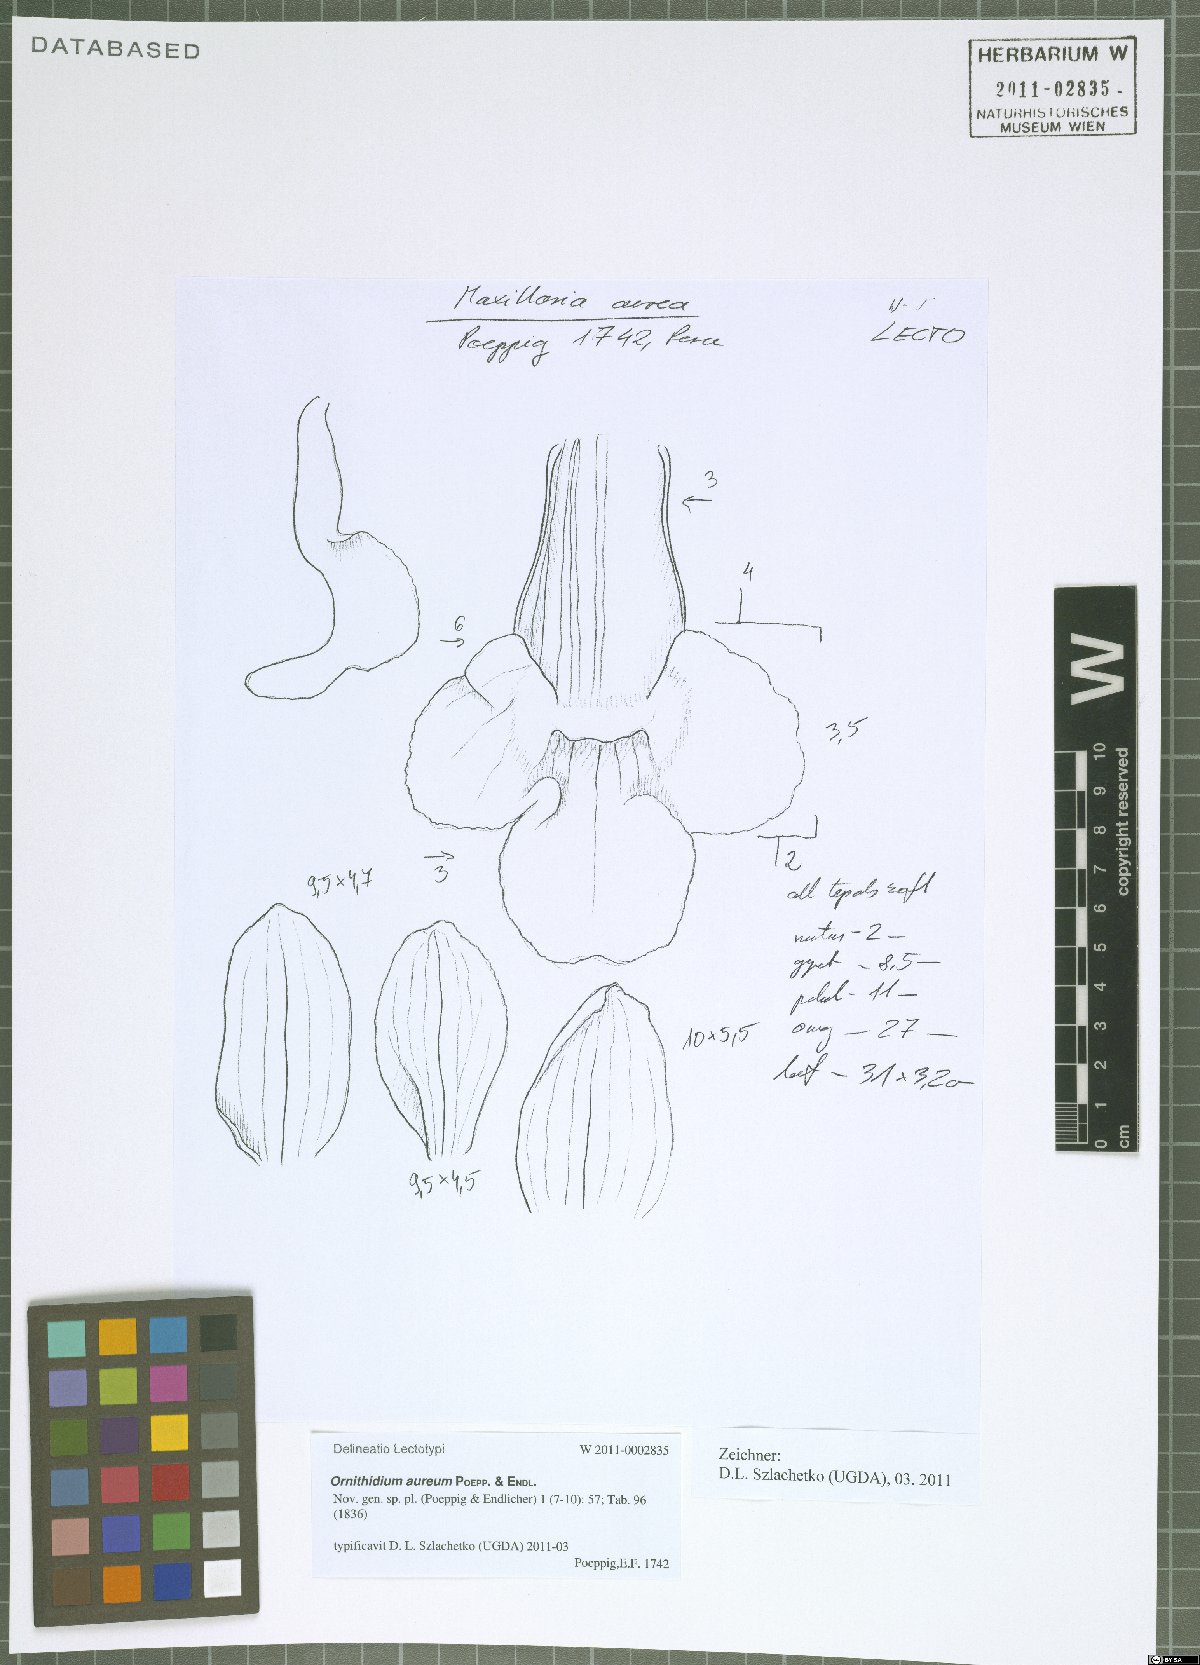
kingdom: Plantae
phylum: Tracheophyta
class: Liliopsida
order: Asparagales
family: Orchidaceae
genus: Maxillaria
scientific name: Maxillaria aurea
